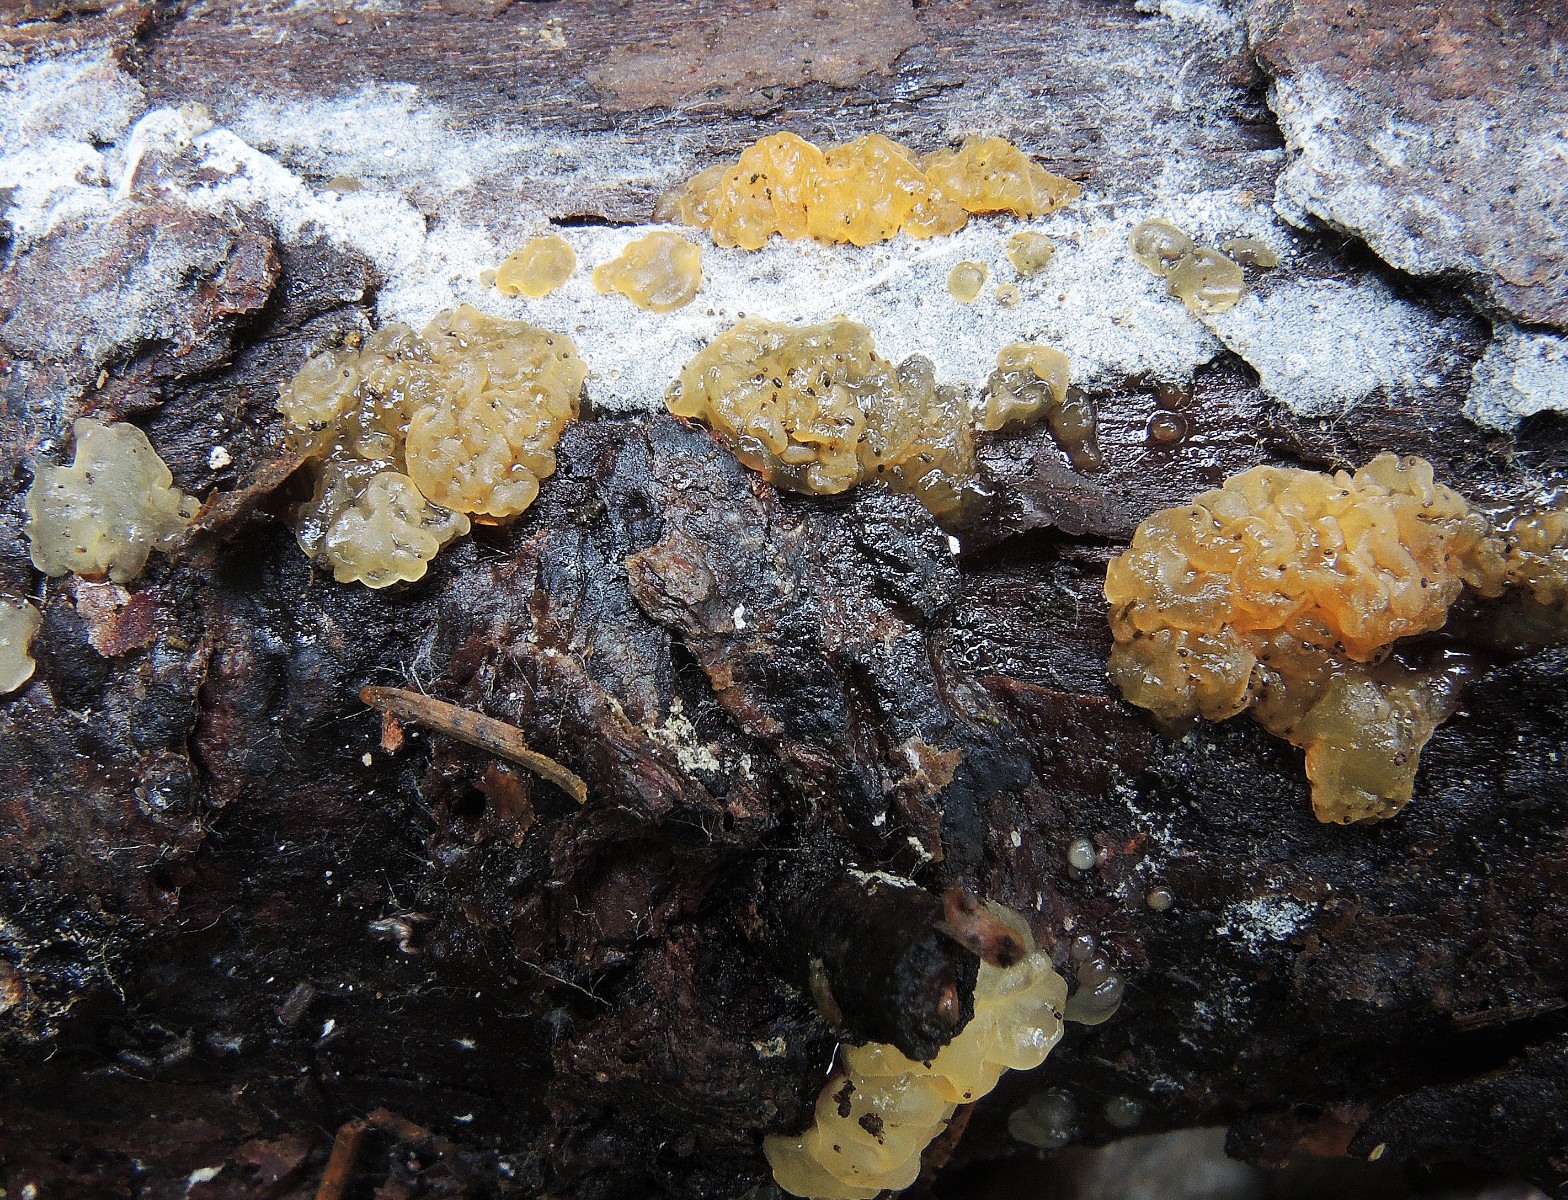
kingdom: Fungi
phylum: Basidiomycota
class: Dacrymycetes
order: Dacrymycetales
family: Dacrymycetaceae
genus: Dacrymyces
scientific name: Dacrymyces
